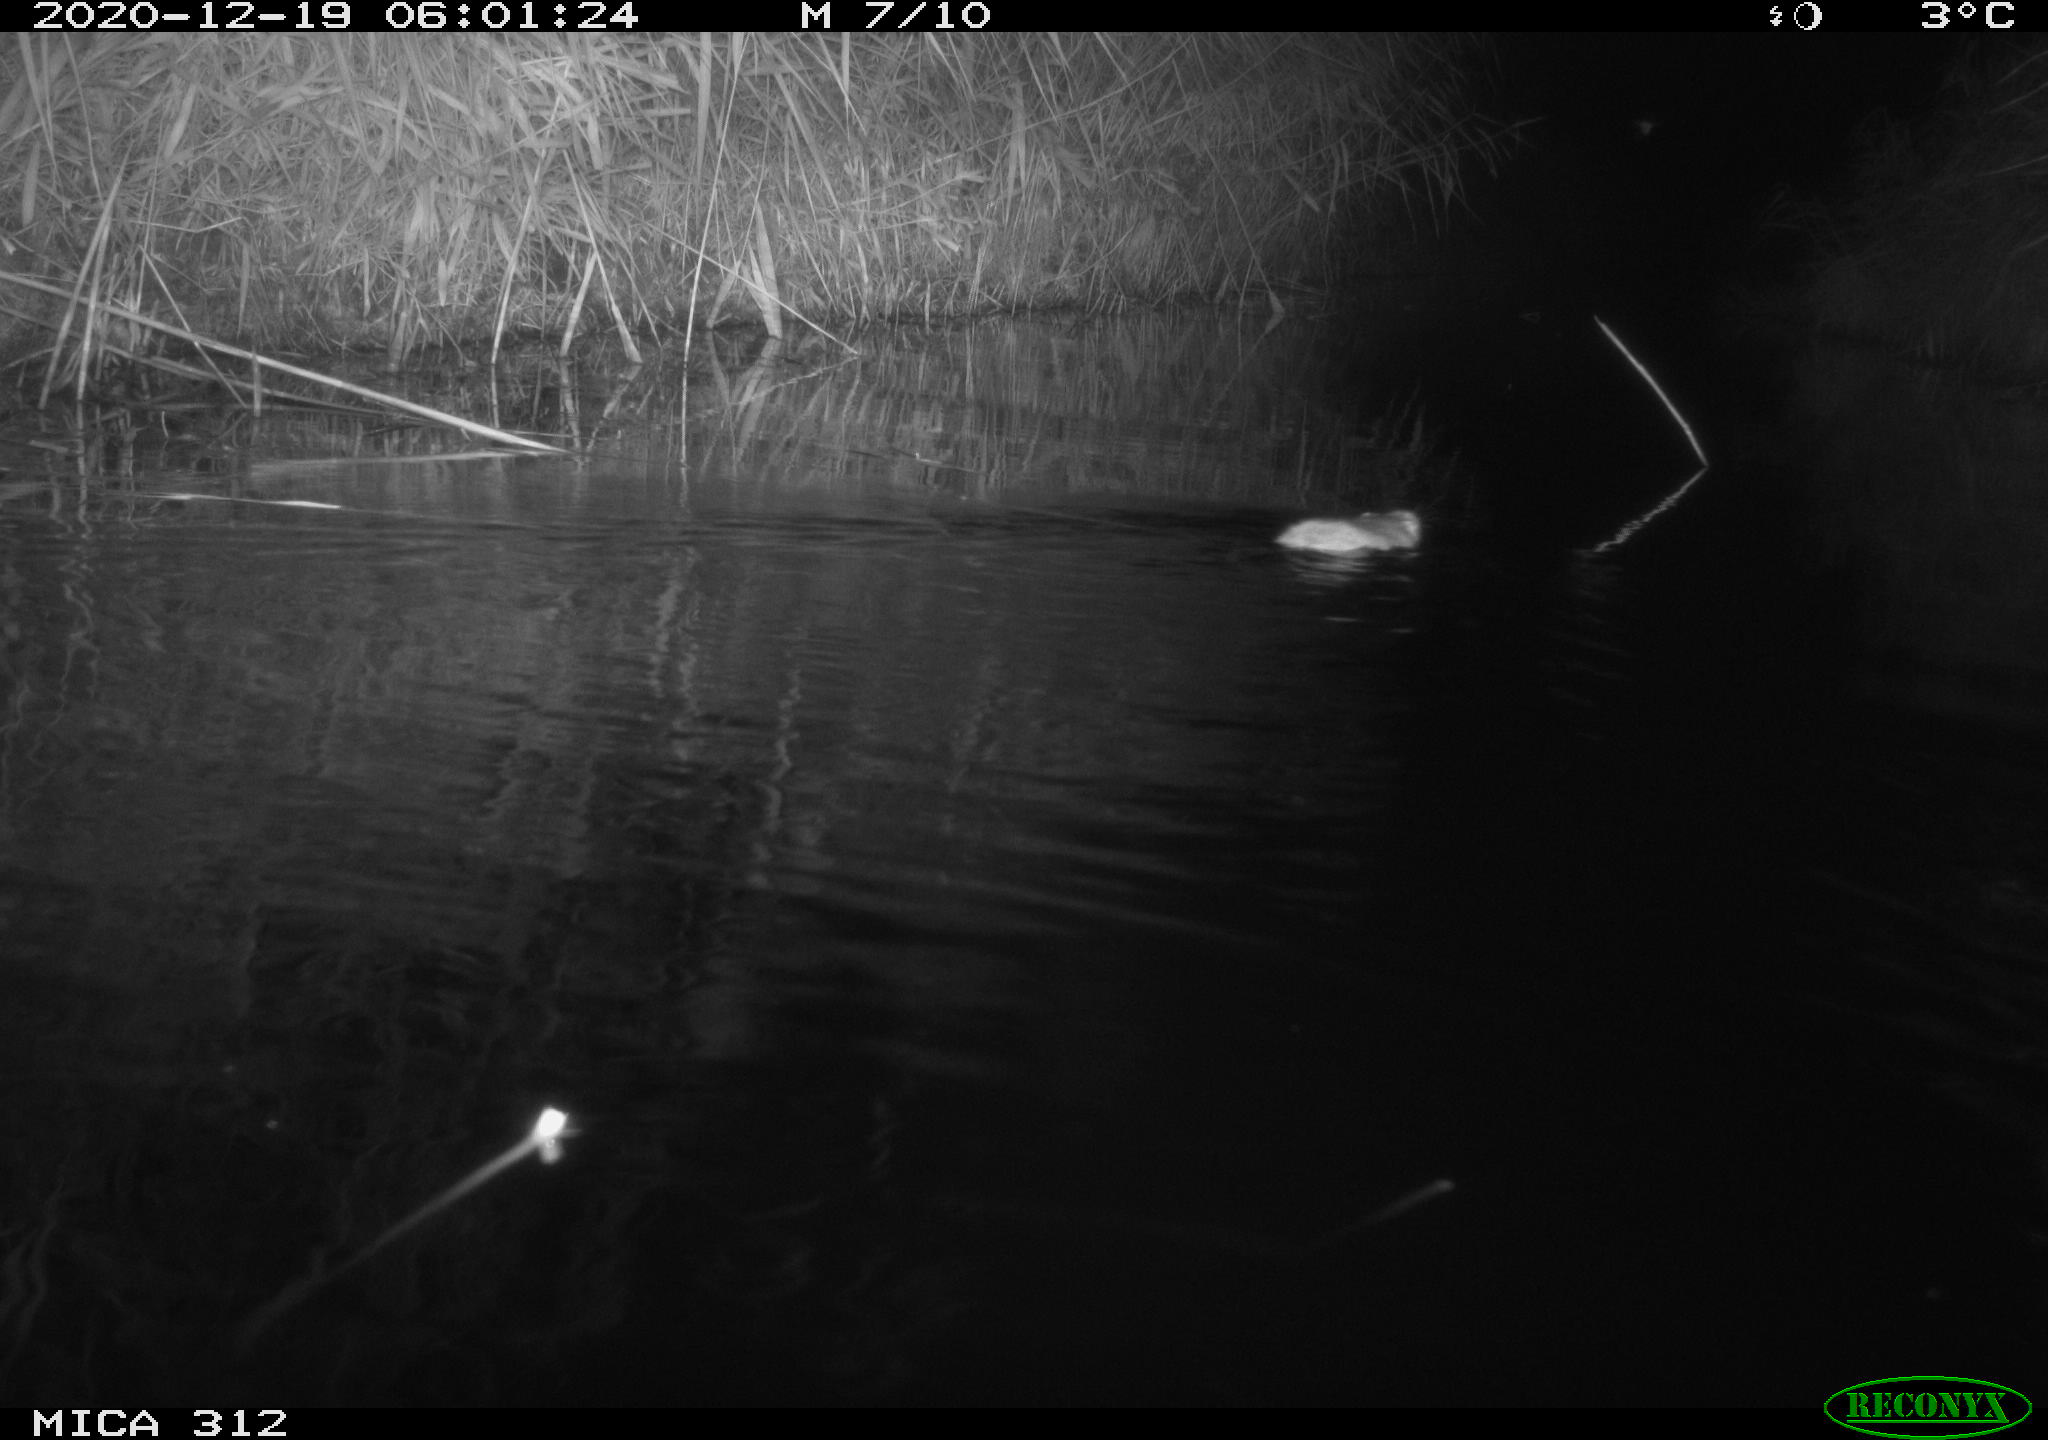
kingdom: Animalia
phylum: Chordata
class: Mammalia
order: Rodentia
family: Muridae
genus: Rattus
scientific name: Rattus norvegicus
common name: Brown rat
